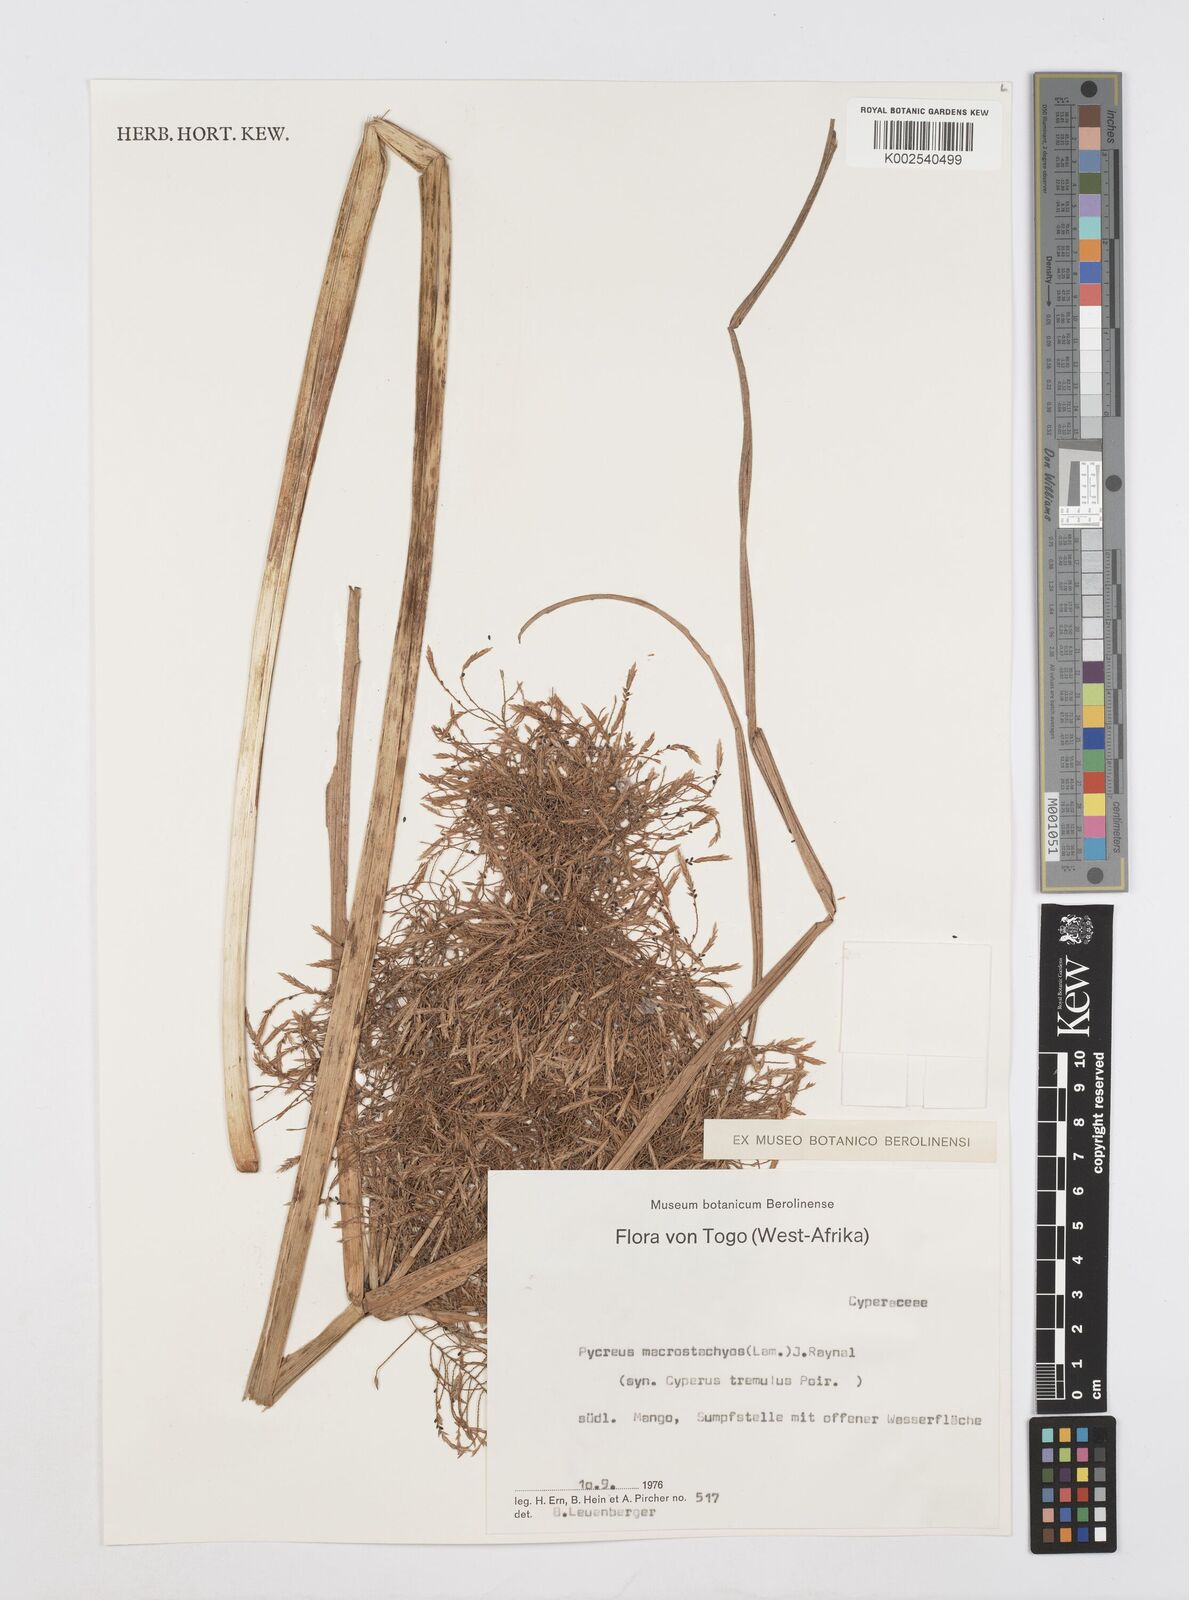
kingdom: Plantae
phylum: Tracheophyta
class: Liliopsida
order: Poales
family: Cyperaceae
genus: Cyperus
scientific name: Cyperus macrostachyos
